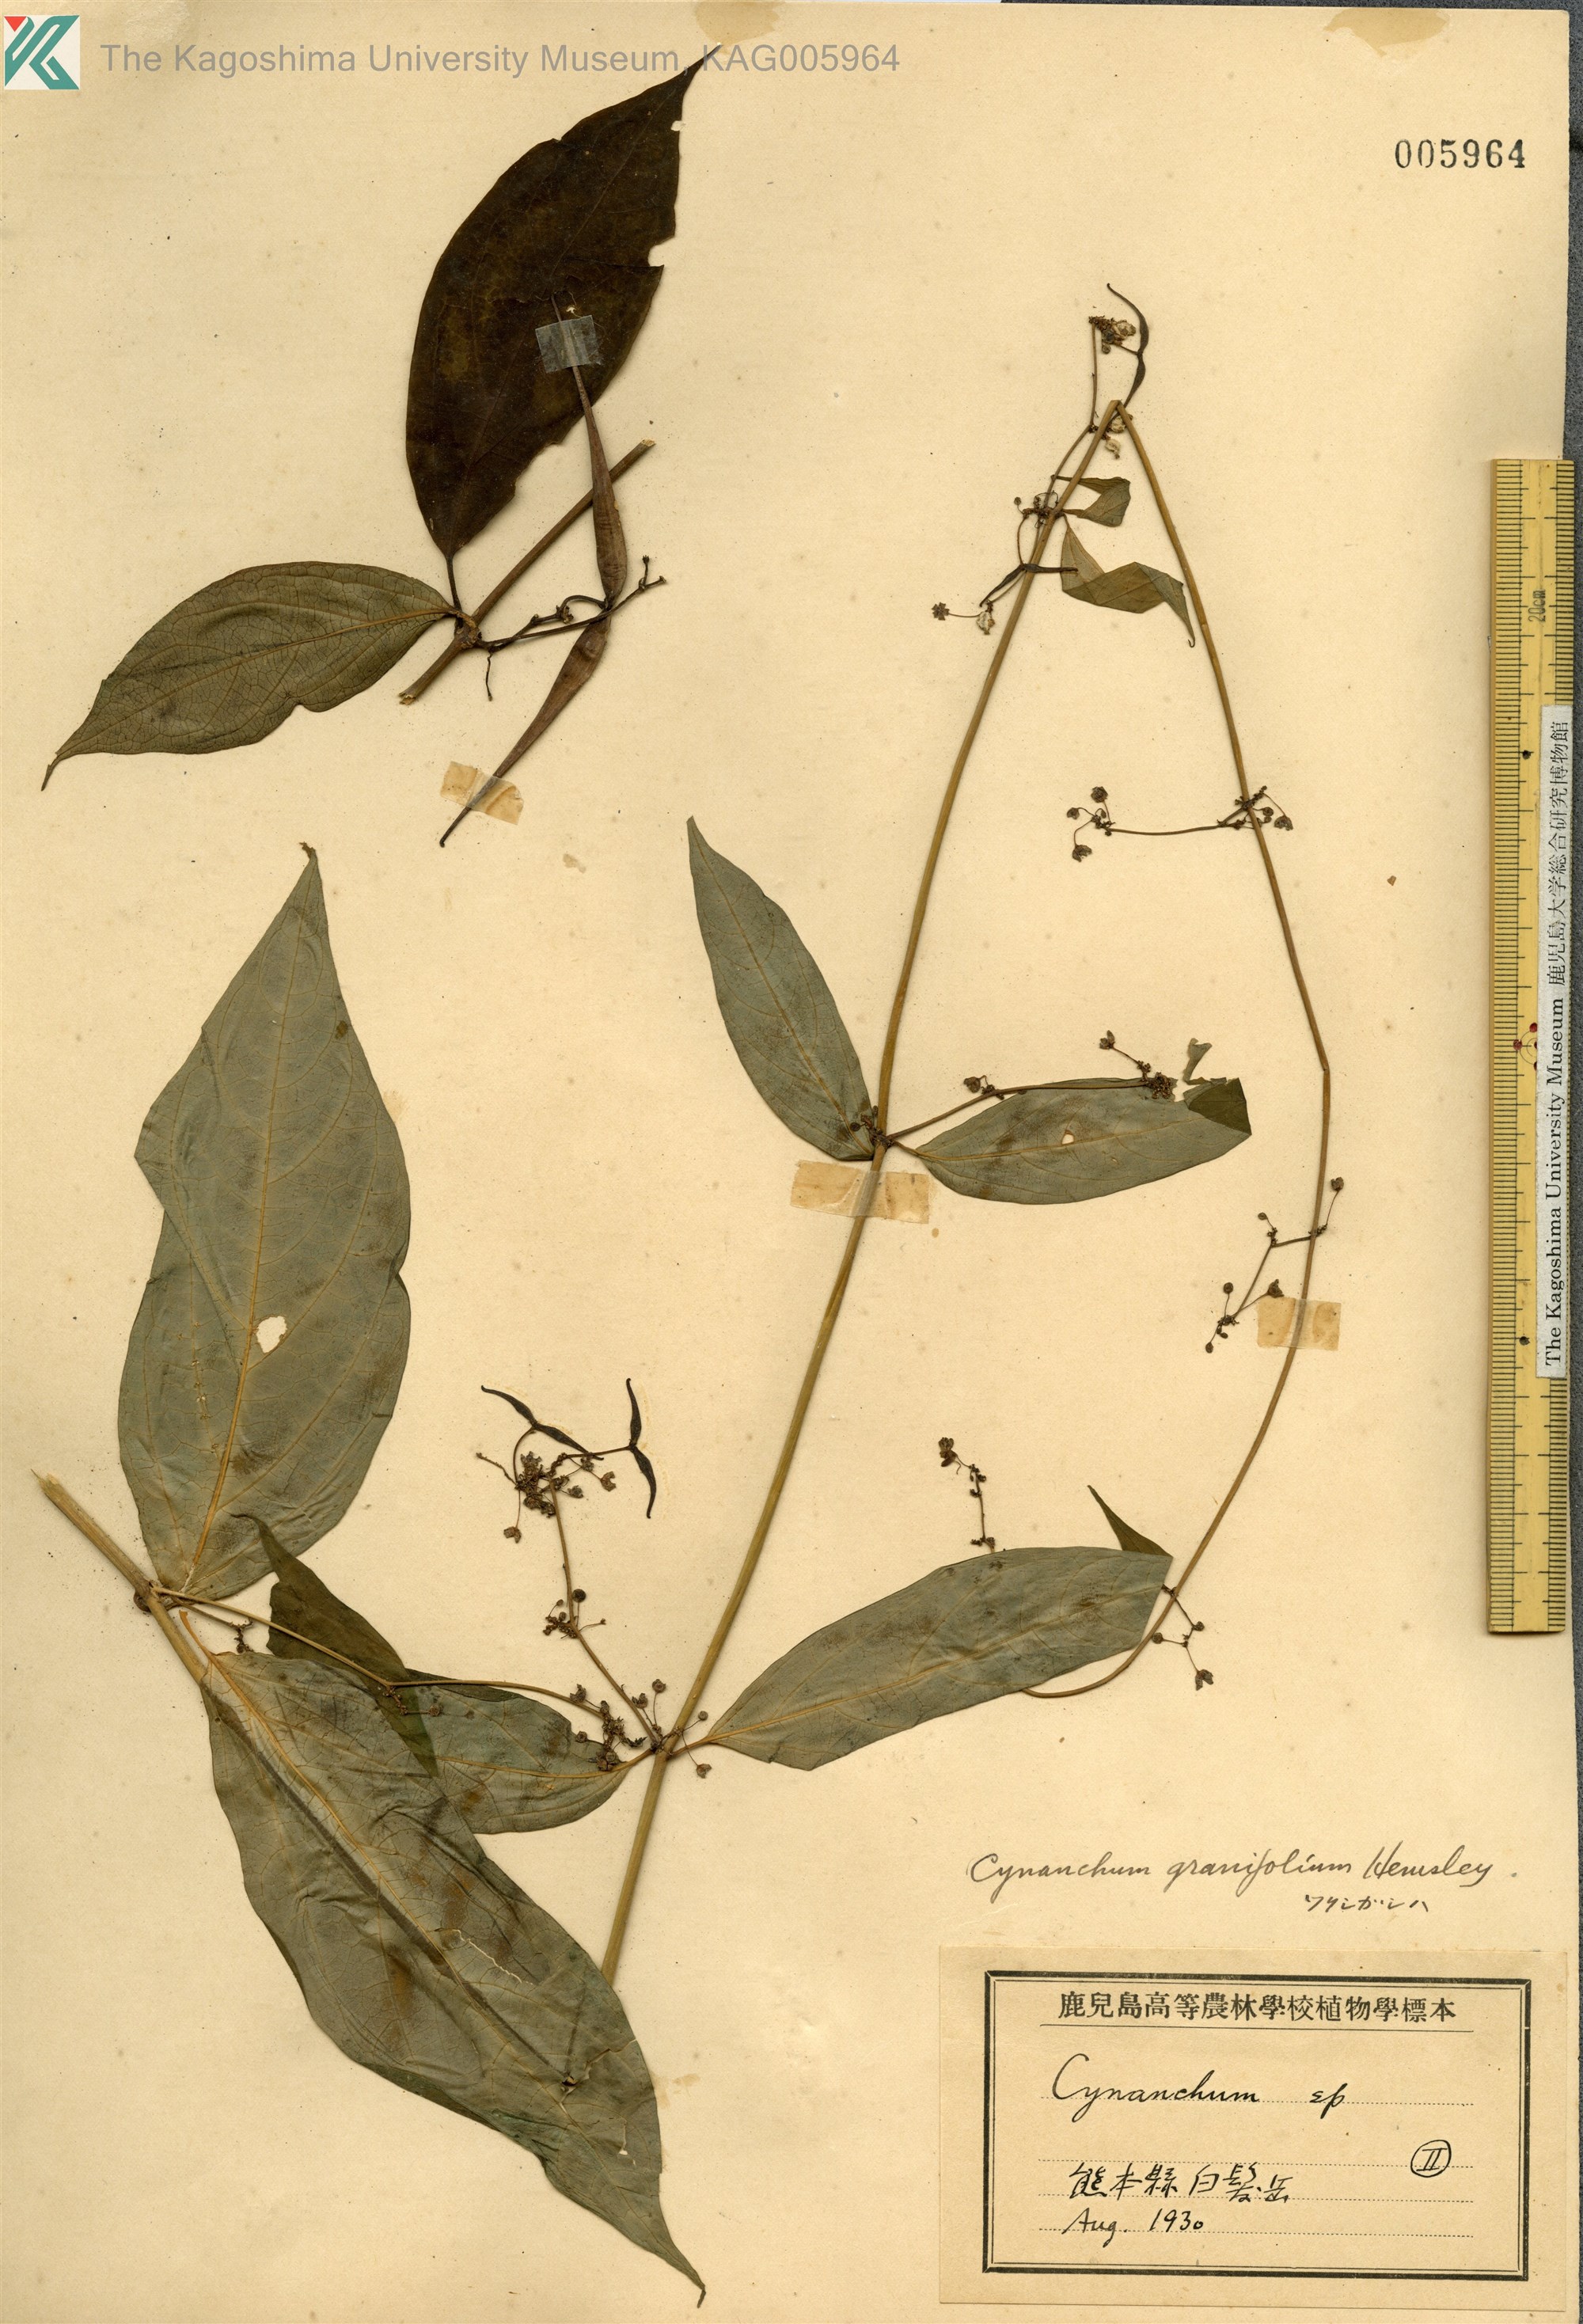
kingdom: Plantae
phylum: Tracheophyta
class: Magnoliopsida
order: Gentianales
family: Apocynaceae
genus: Vincetoxicum
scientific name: Vincetoxicum inamoenum
